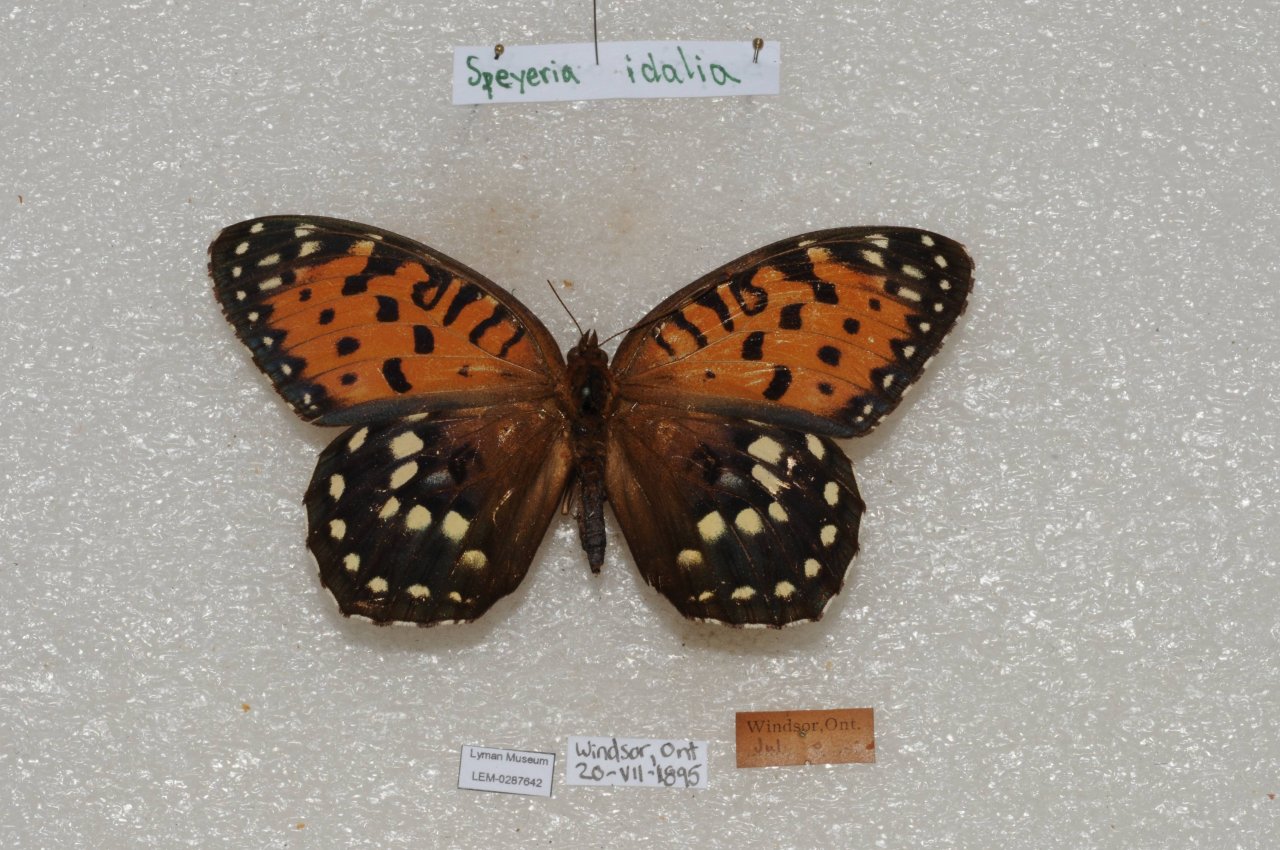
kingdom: Animalia
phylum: Arthropoda
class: Insecta
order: Lepidoptera
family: Nymphalidae
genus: Speyeria
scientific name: Speyeria idalia
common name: Regal Fritillary
